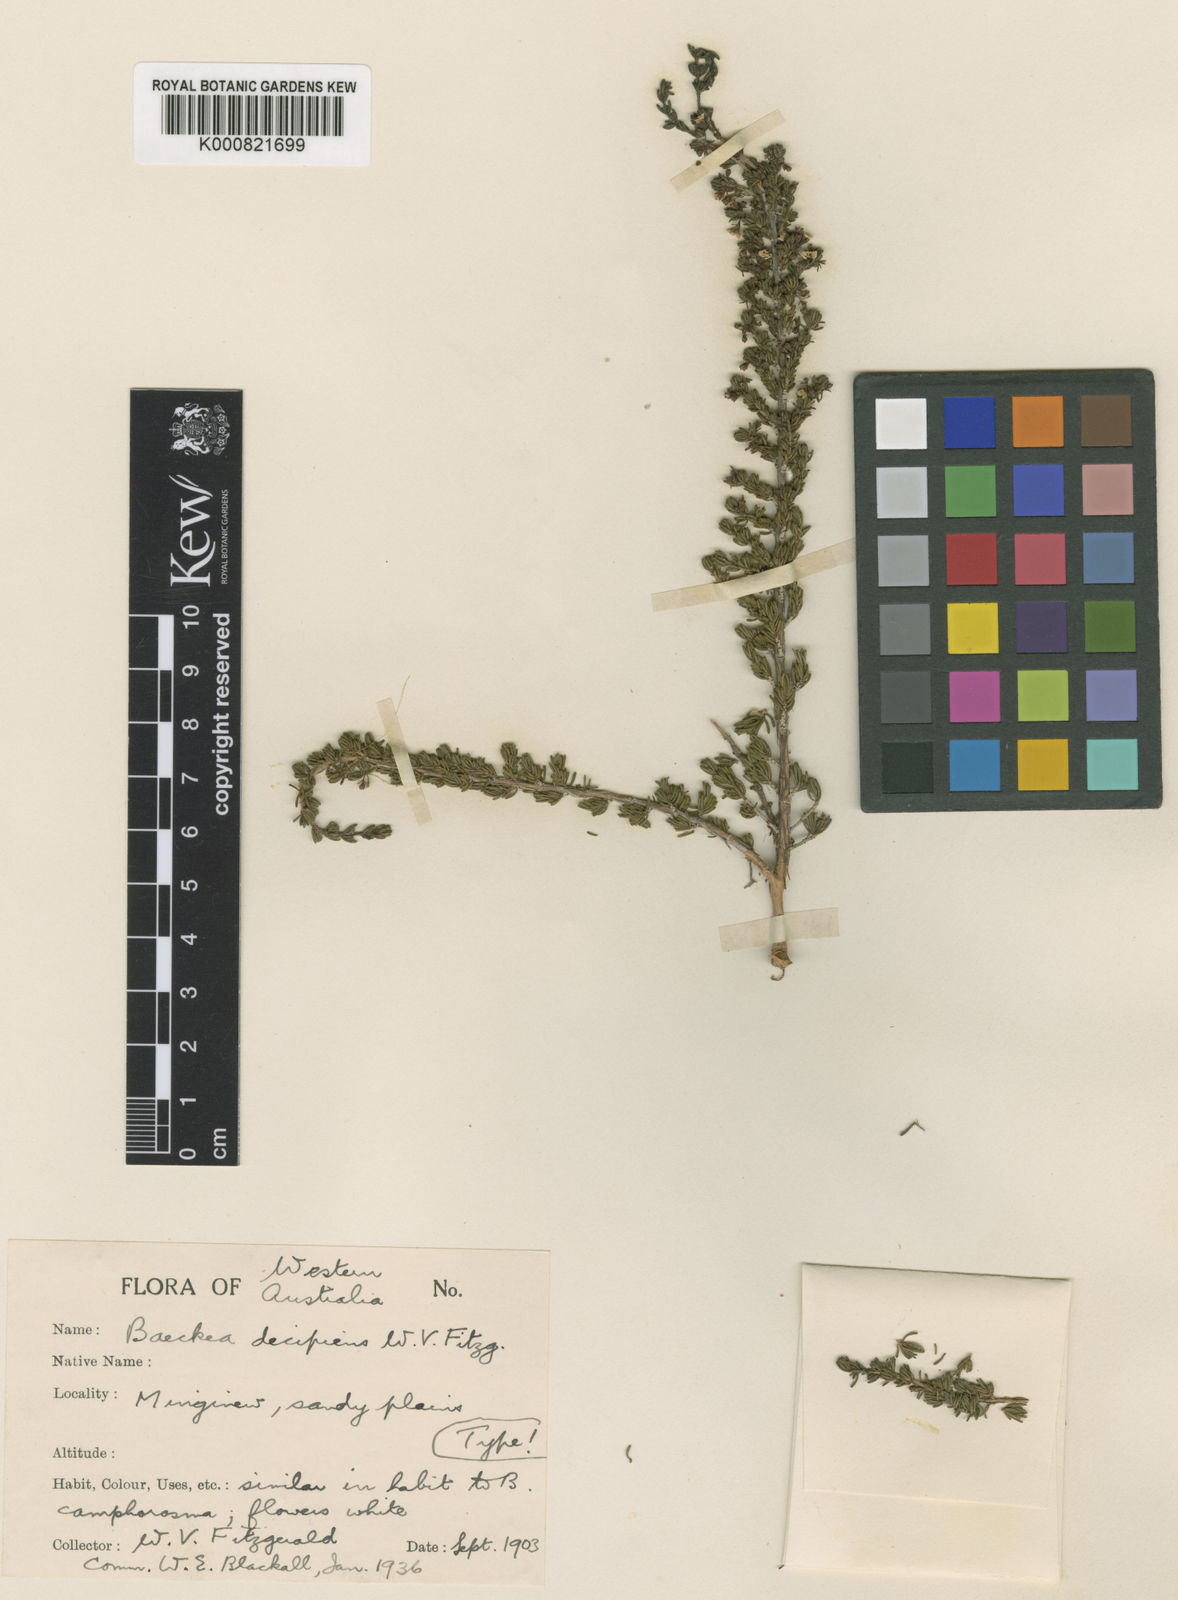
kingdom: Plantae
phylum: Tracheophyta
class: Magnoliopsida
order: Myrtales
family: Myrtaceae
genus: Malleostemon
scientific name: Malleostemon decipiens
